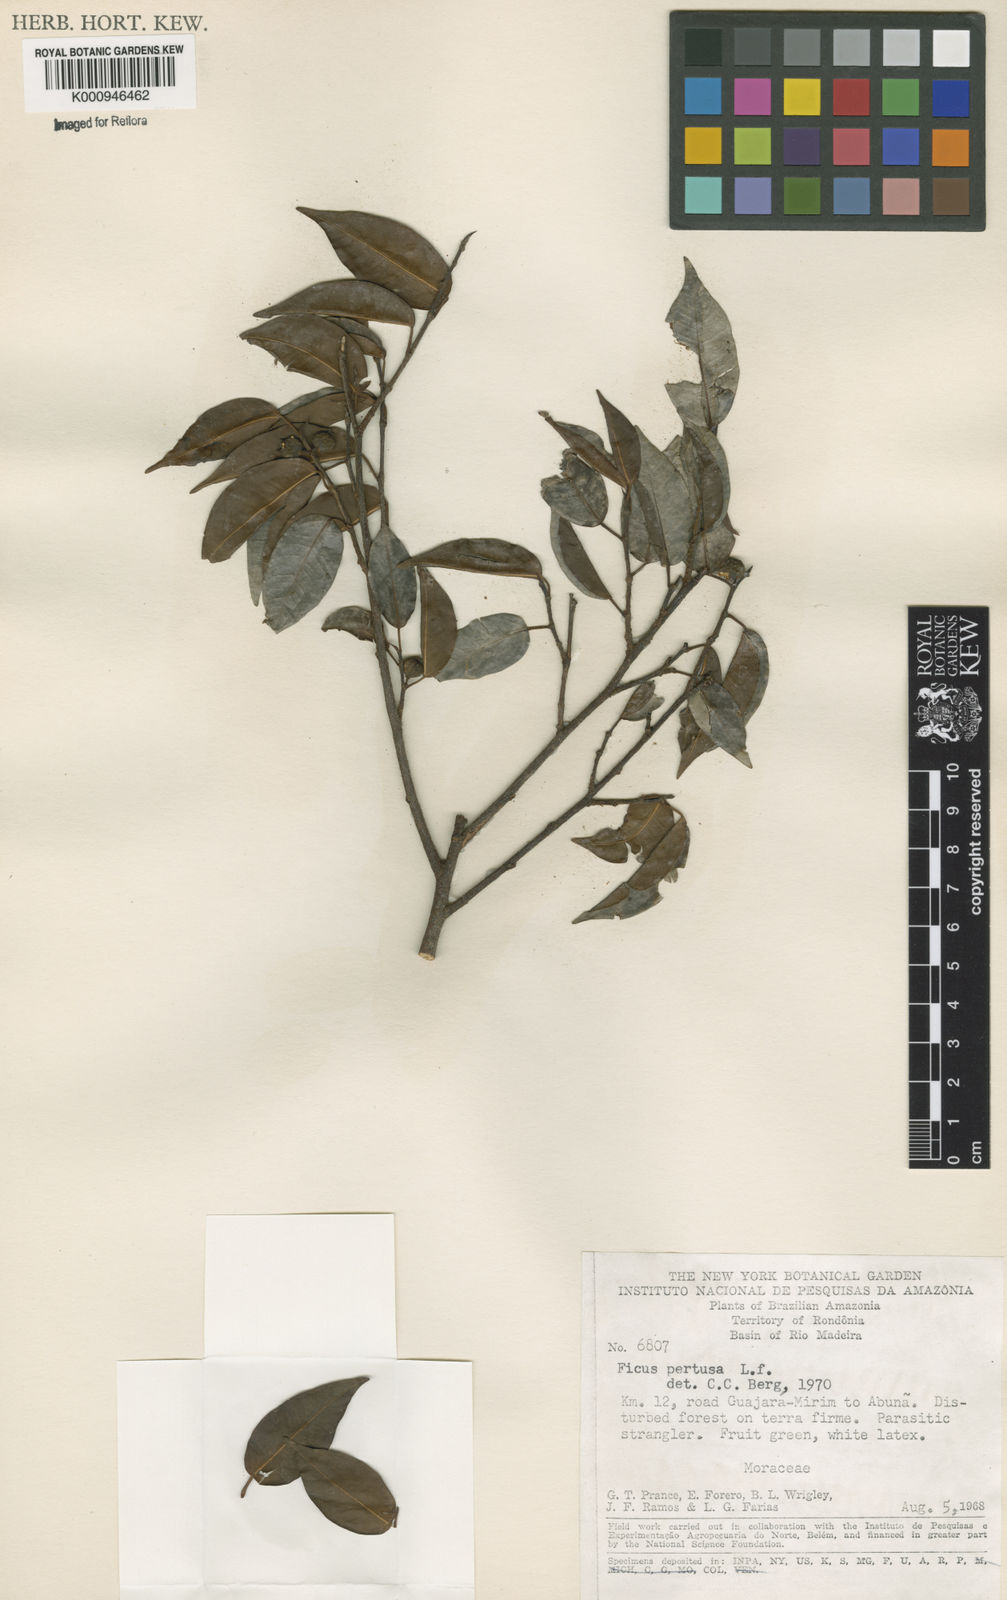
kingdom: Plantae
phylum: Tracheophyta
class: Magnoliopsida
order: Rosales
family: Moraceae
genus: Ficus
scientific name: Ficus pertusa
